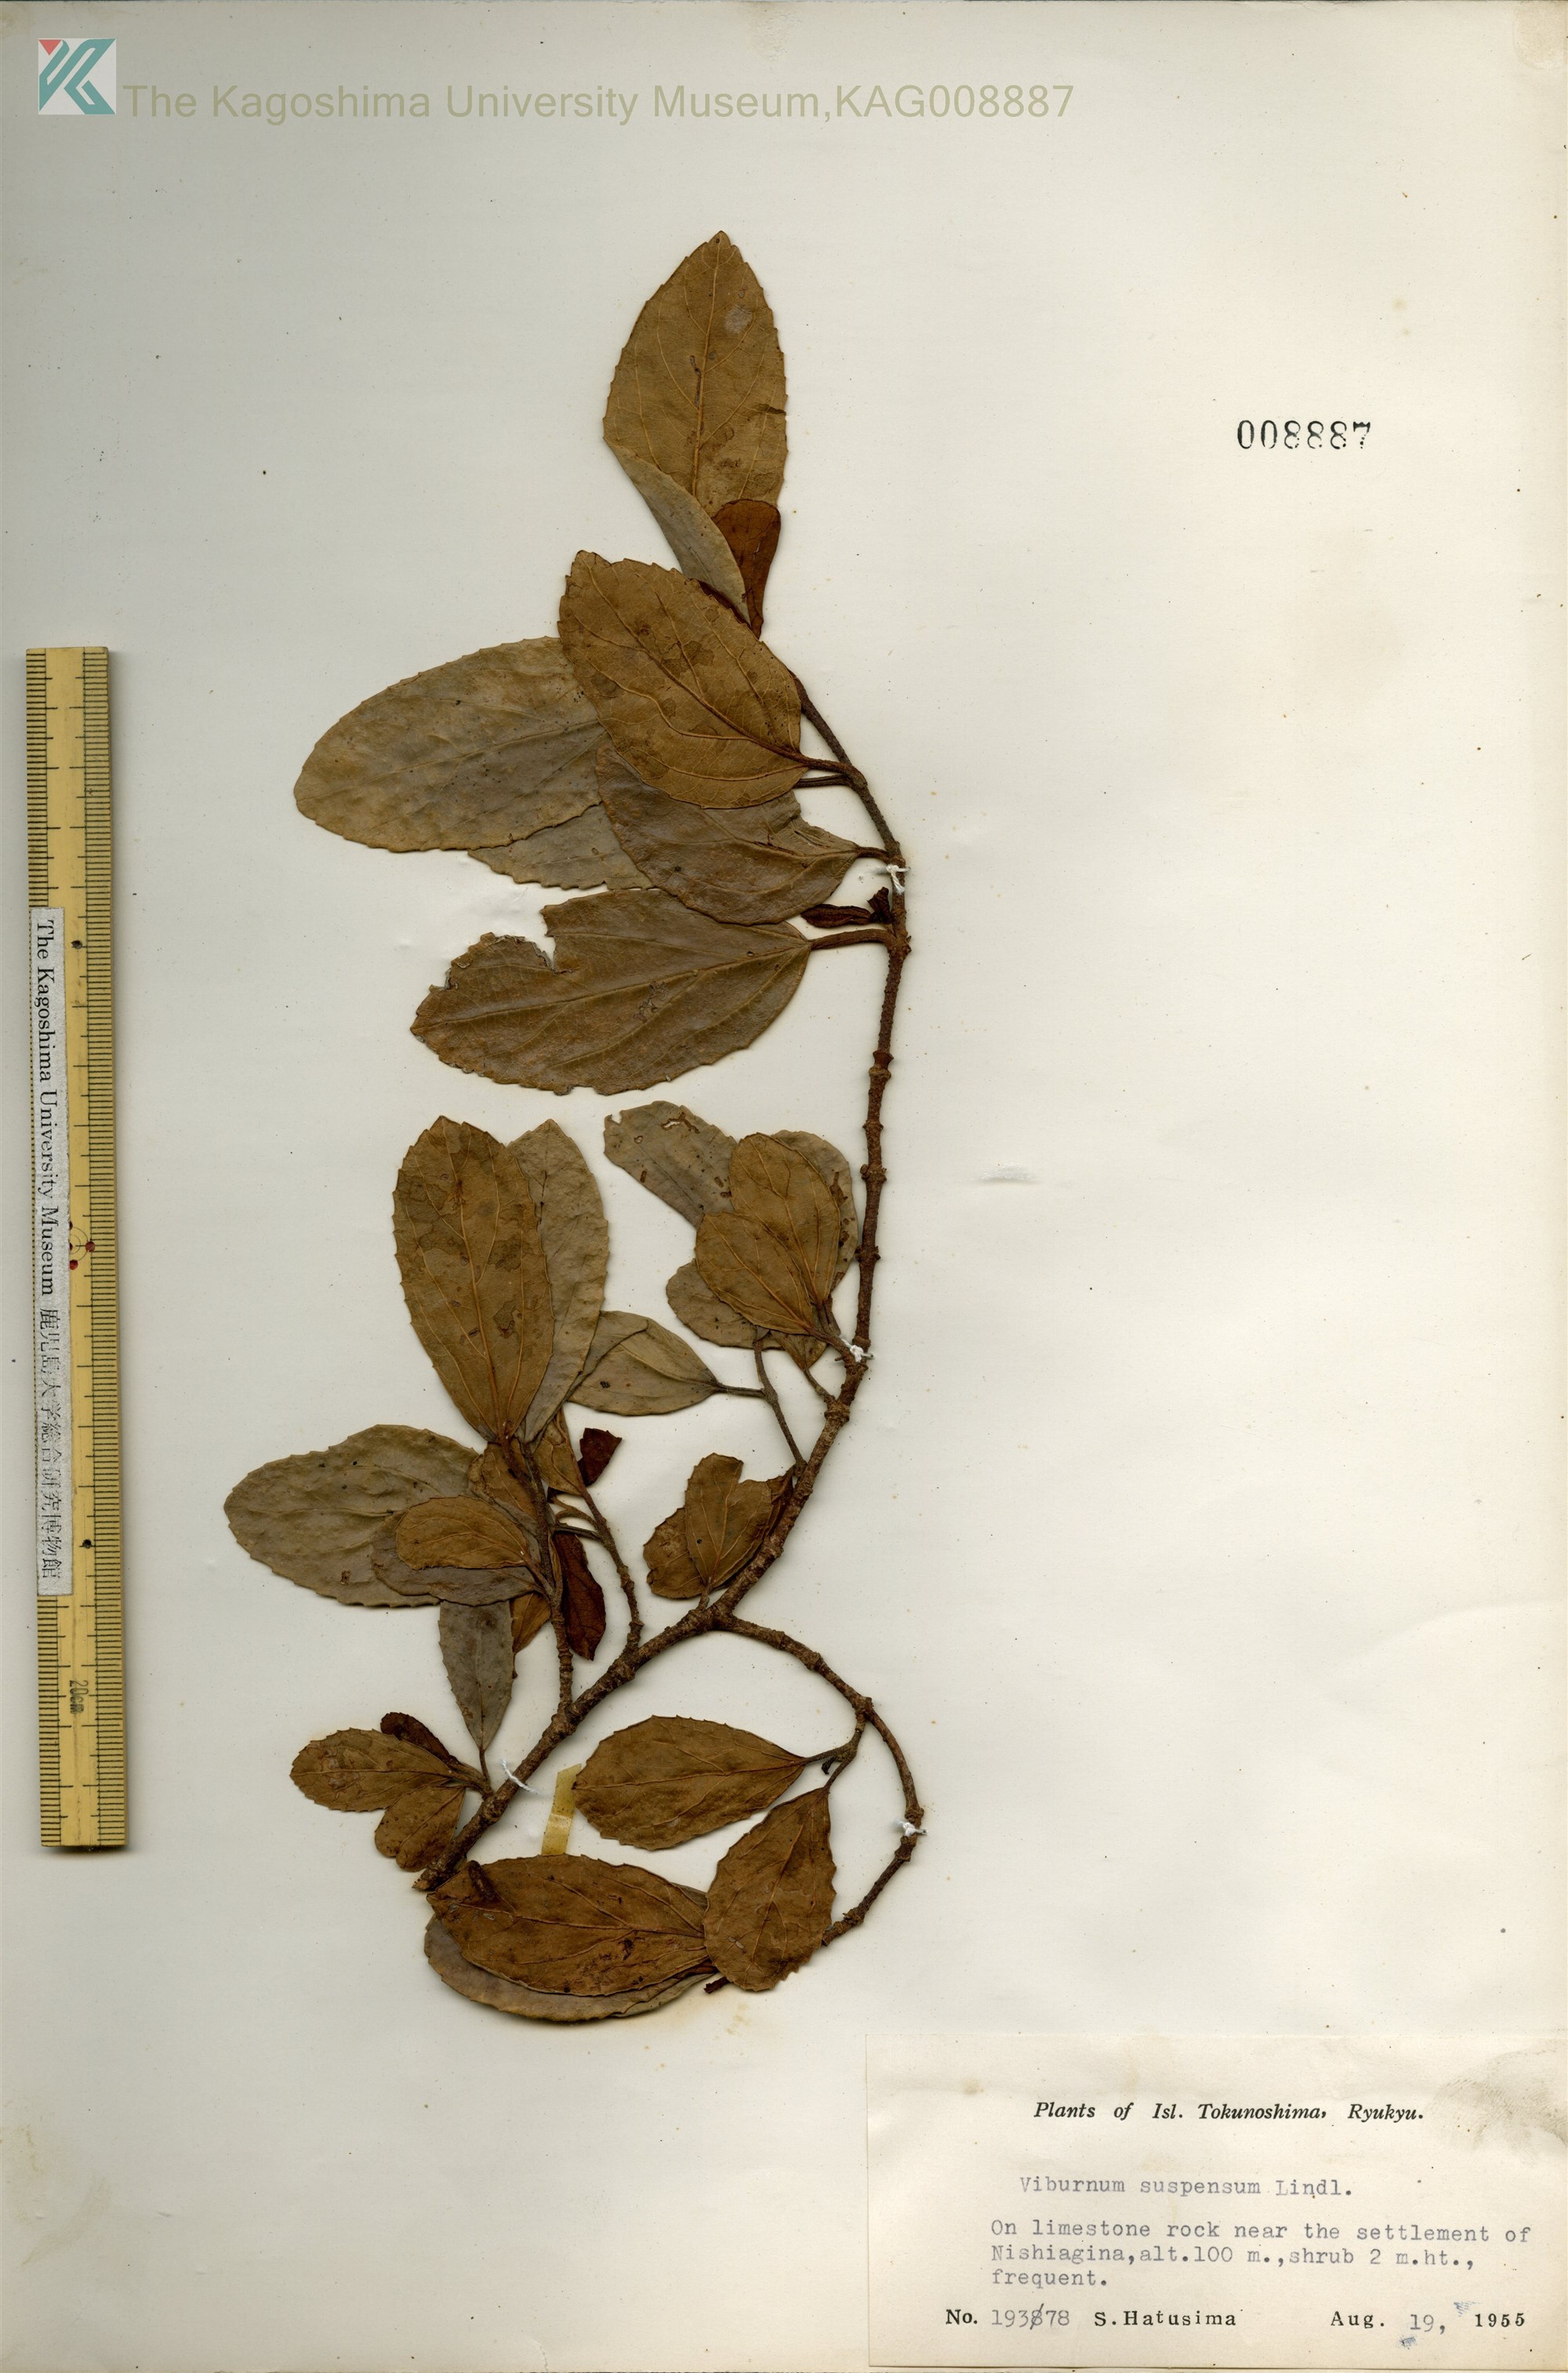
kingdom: Plantae
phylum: Tracheophyta
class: Magnoliopsida
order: Dipsacales
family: Viburnaceae
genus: Viburnum
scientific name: Viburnum suspensum
